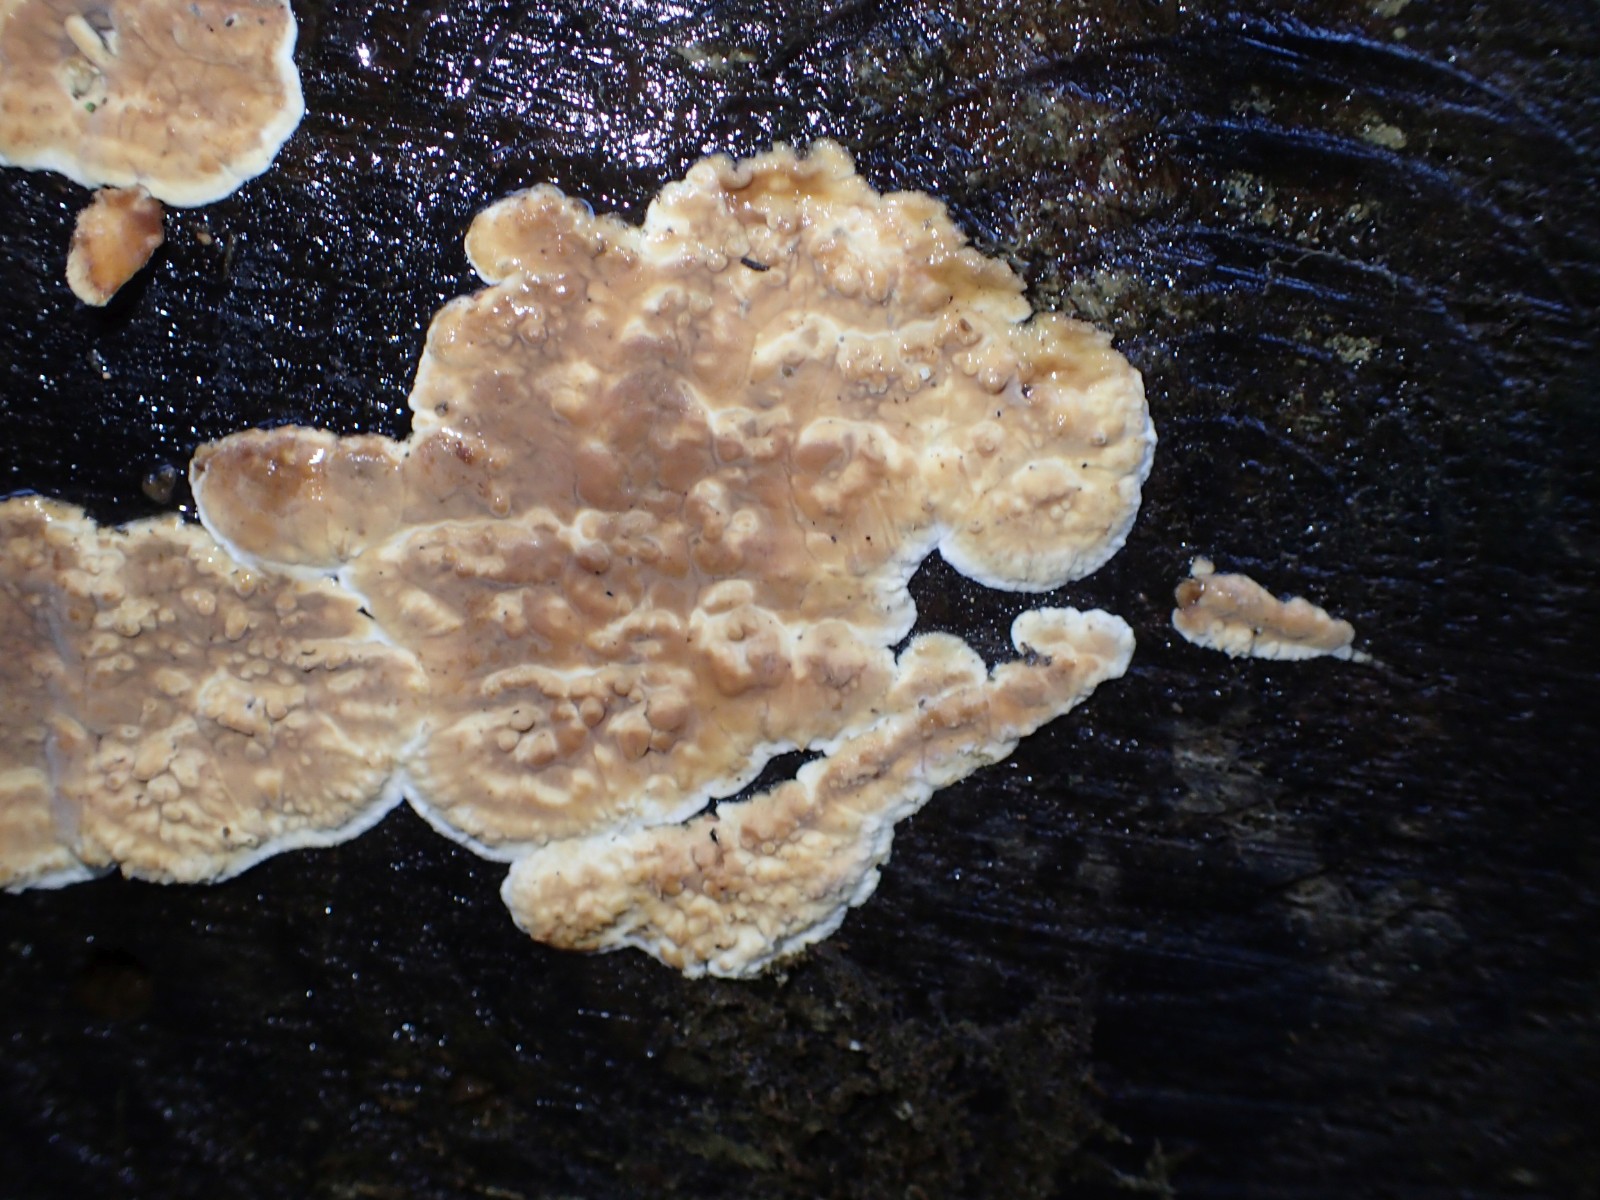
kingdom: Fungi
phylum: Basidiomycota
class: Agaricomycetes
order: Agaricales
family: Physalacriaceae
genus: Cylindrobasidium
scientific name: Cylindrobasidium evolvens
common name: sprækkehinde
